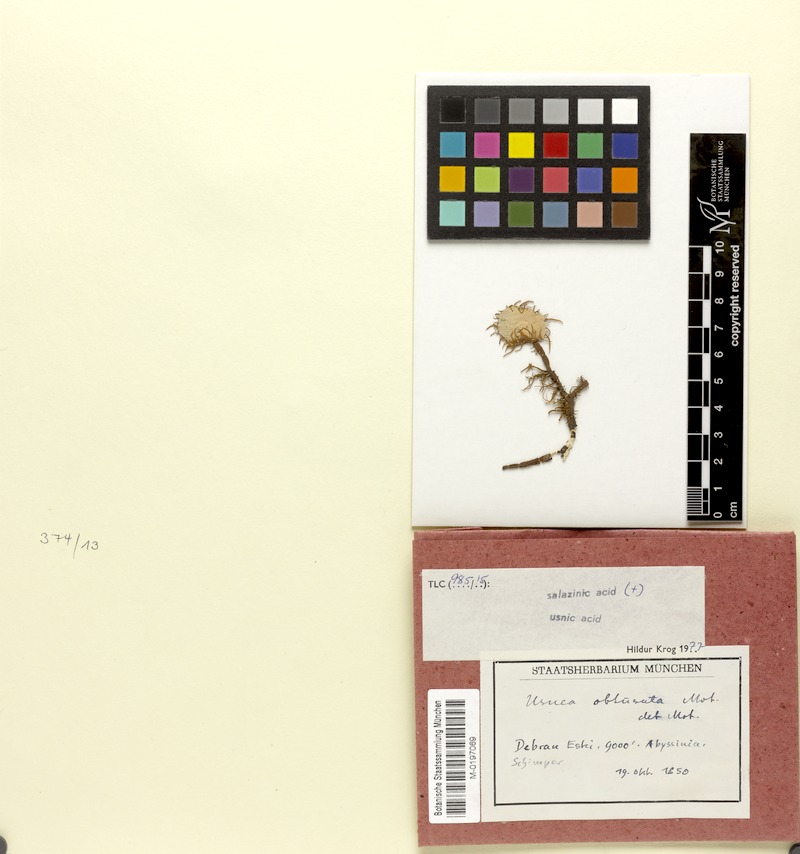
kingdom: Fungi
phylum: Ascomycota
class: Lecanoromycetes
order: Lecanorales
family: Parmeliaceae
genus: Usnea
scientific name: Usnea
